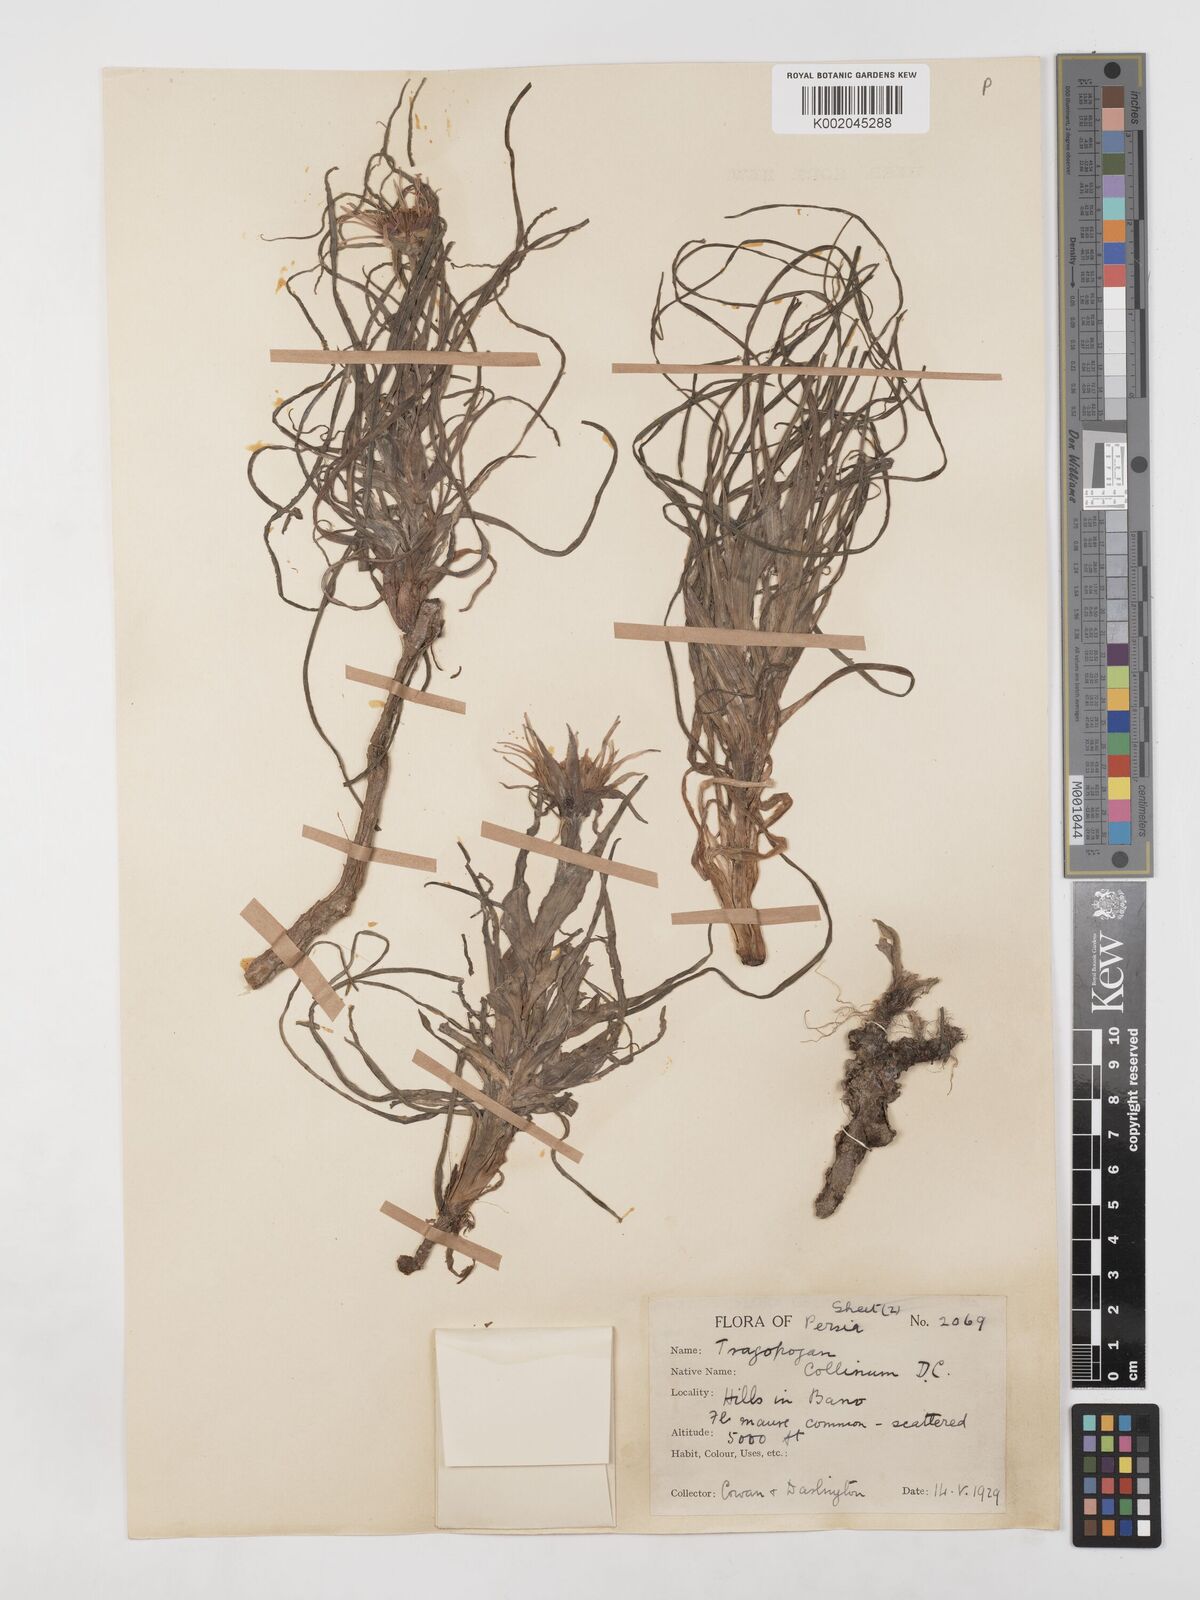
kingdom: Plantae
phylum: Tracheophyta
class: Magnoliopsida
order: Asterales
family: Asteraceae
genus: Tragopogon
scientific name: Tragopogon collinus
